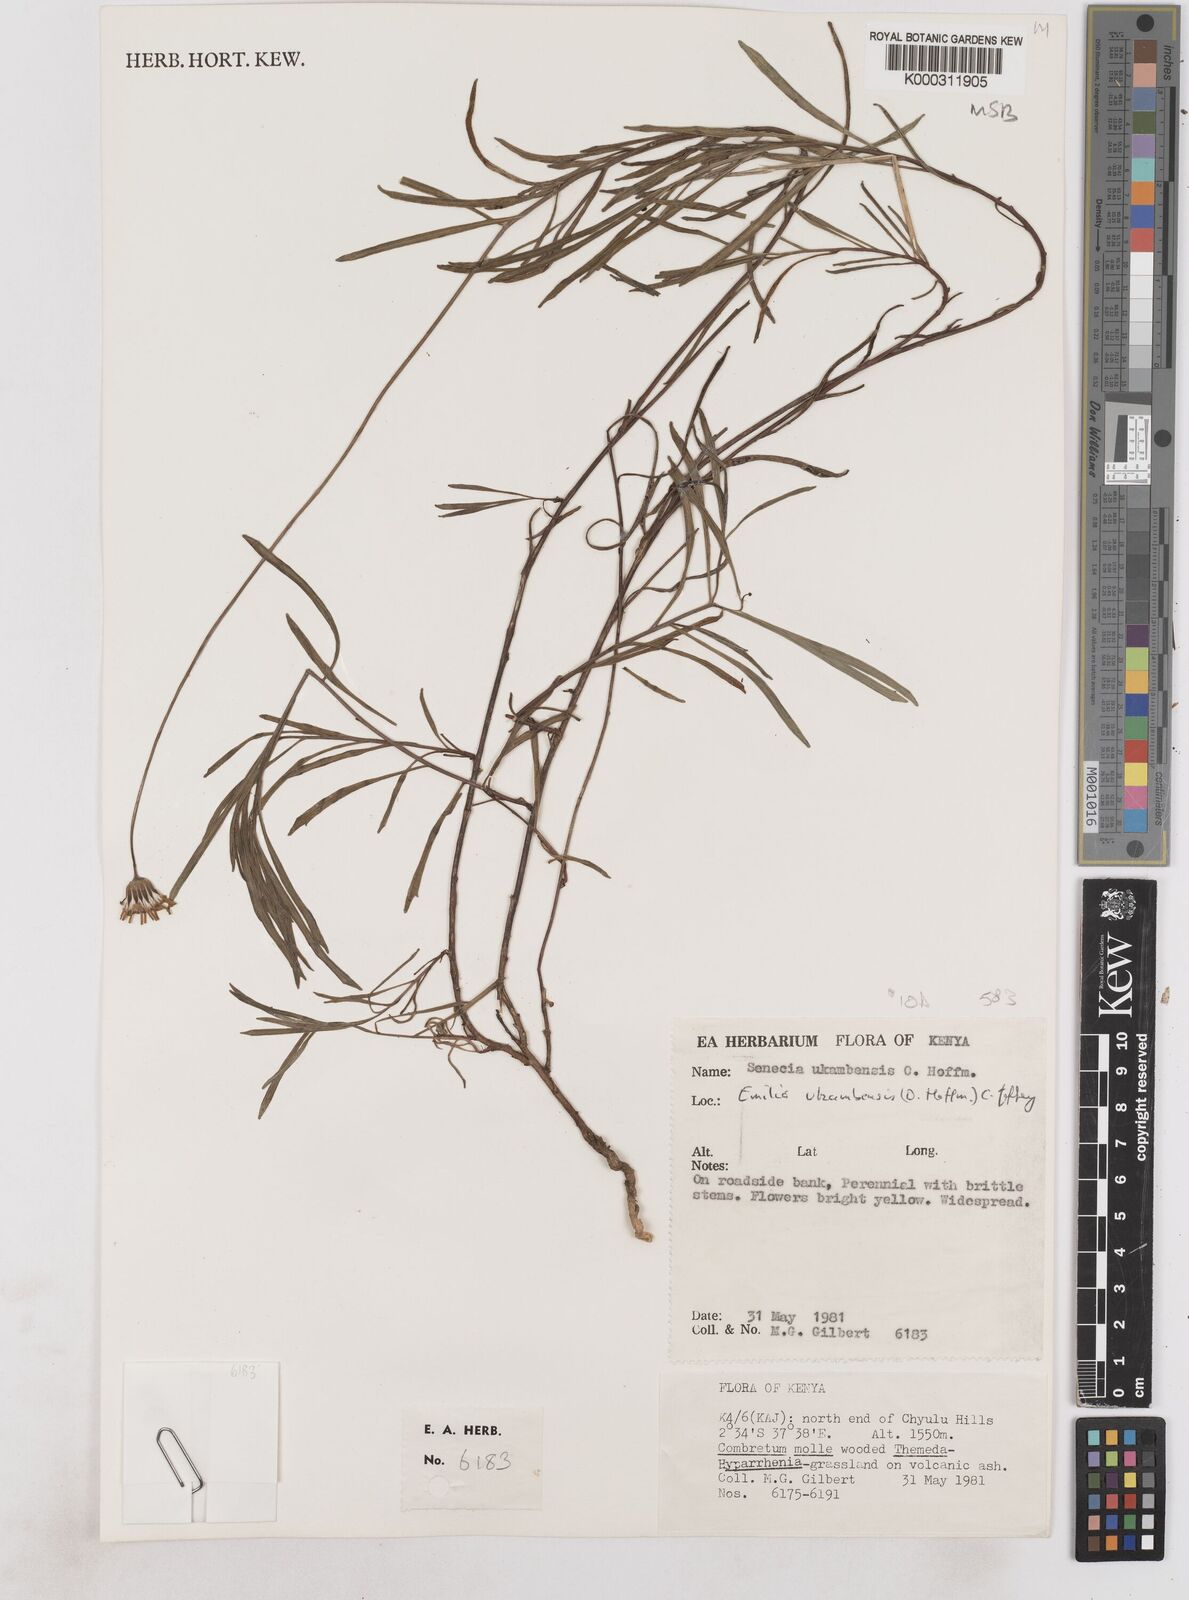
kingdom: Plantae
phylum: Tracheophyta
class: Magnoliopsida
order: Asterales
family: Asteraceae
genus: Emilia
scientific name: Emilia ukambensis
